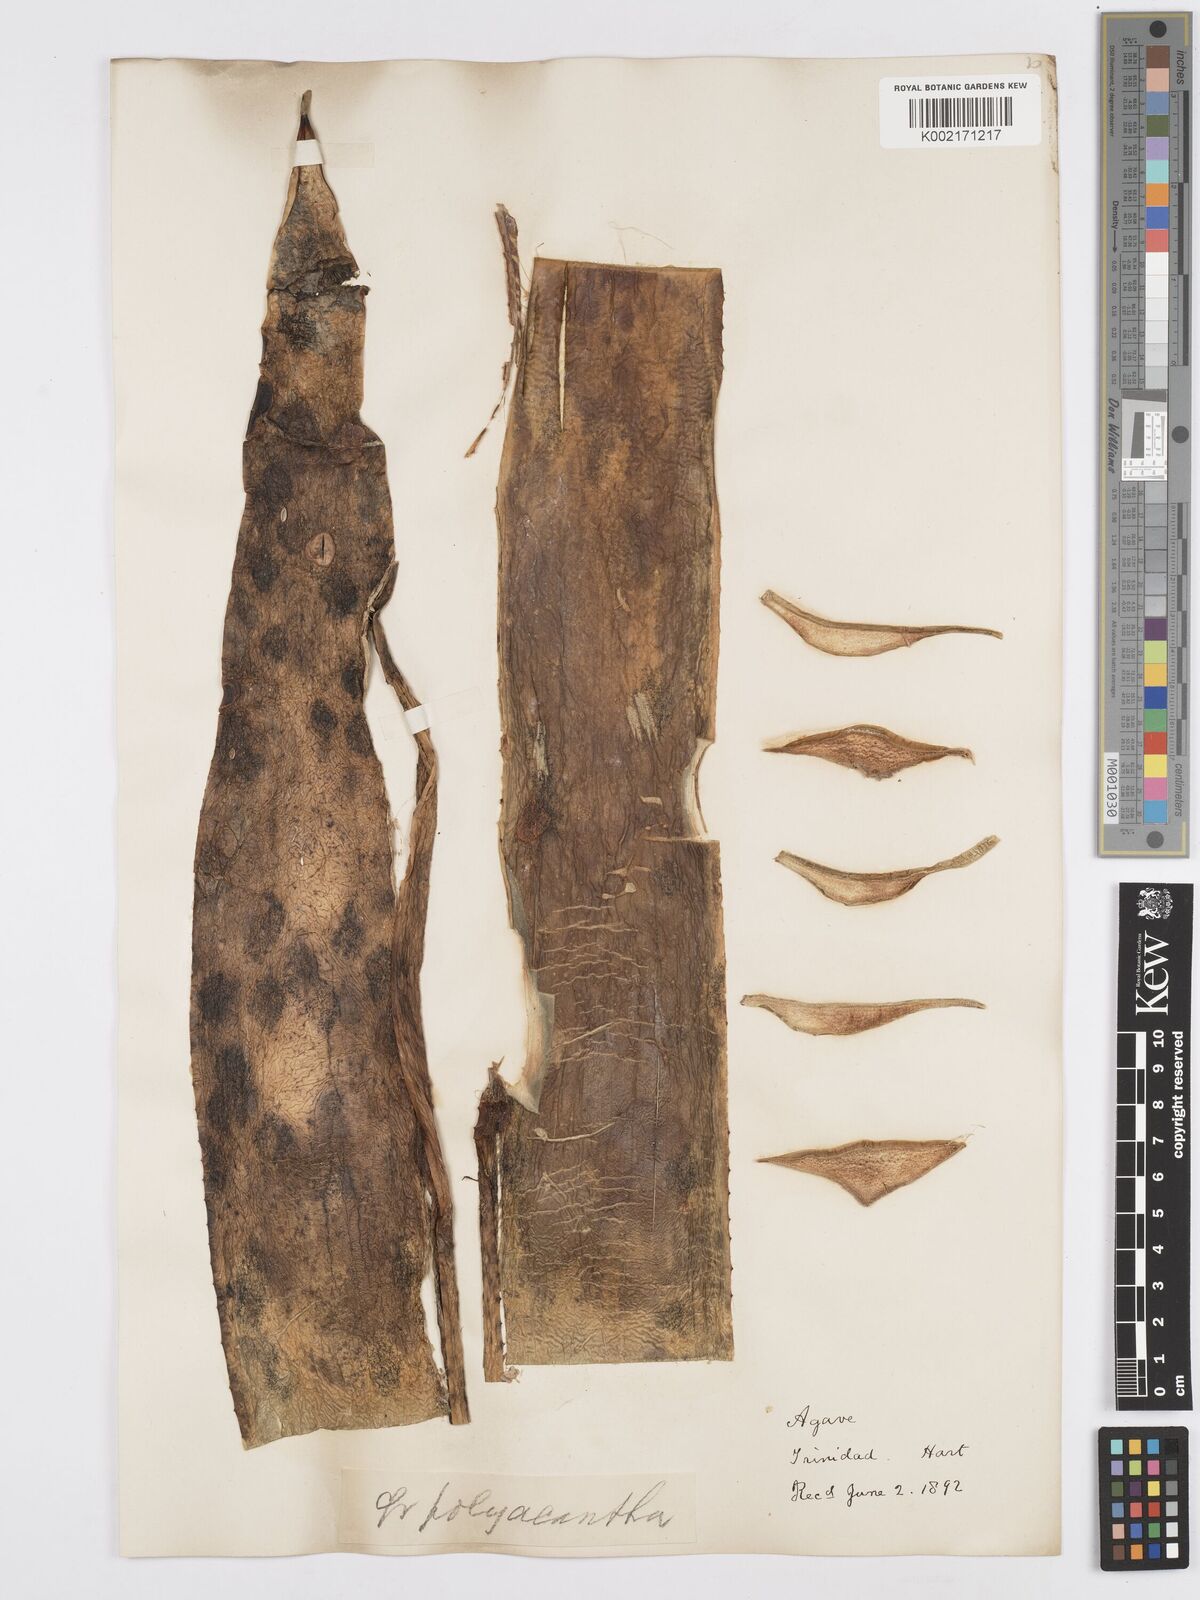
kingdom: Plantae
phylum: Tracheophyta
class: Liliopsida
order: Asparagales
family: Asparagaceae
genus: Agave
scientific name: Agave polyacantha
